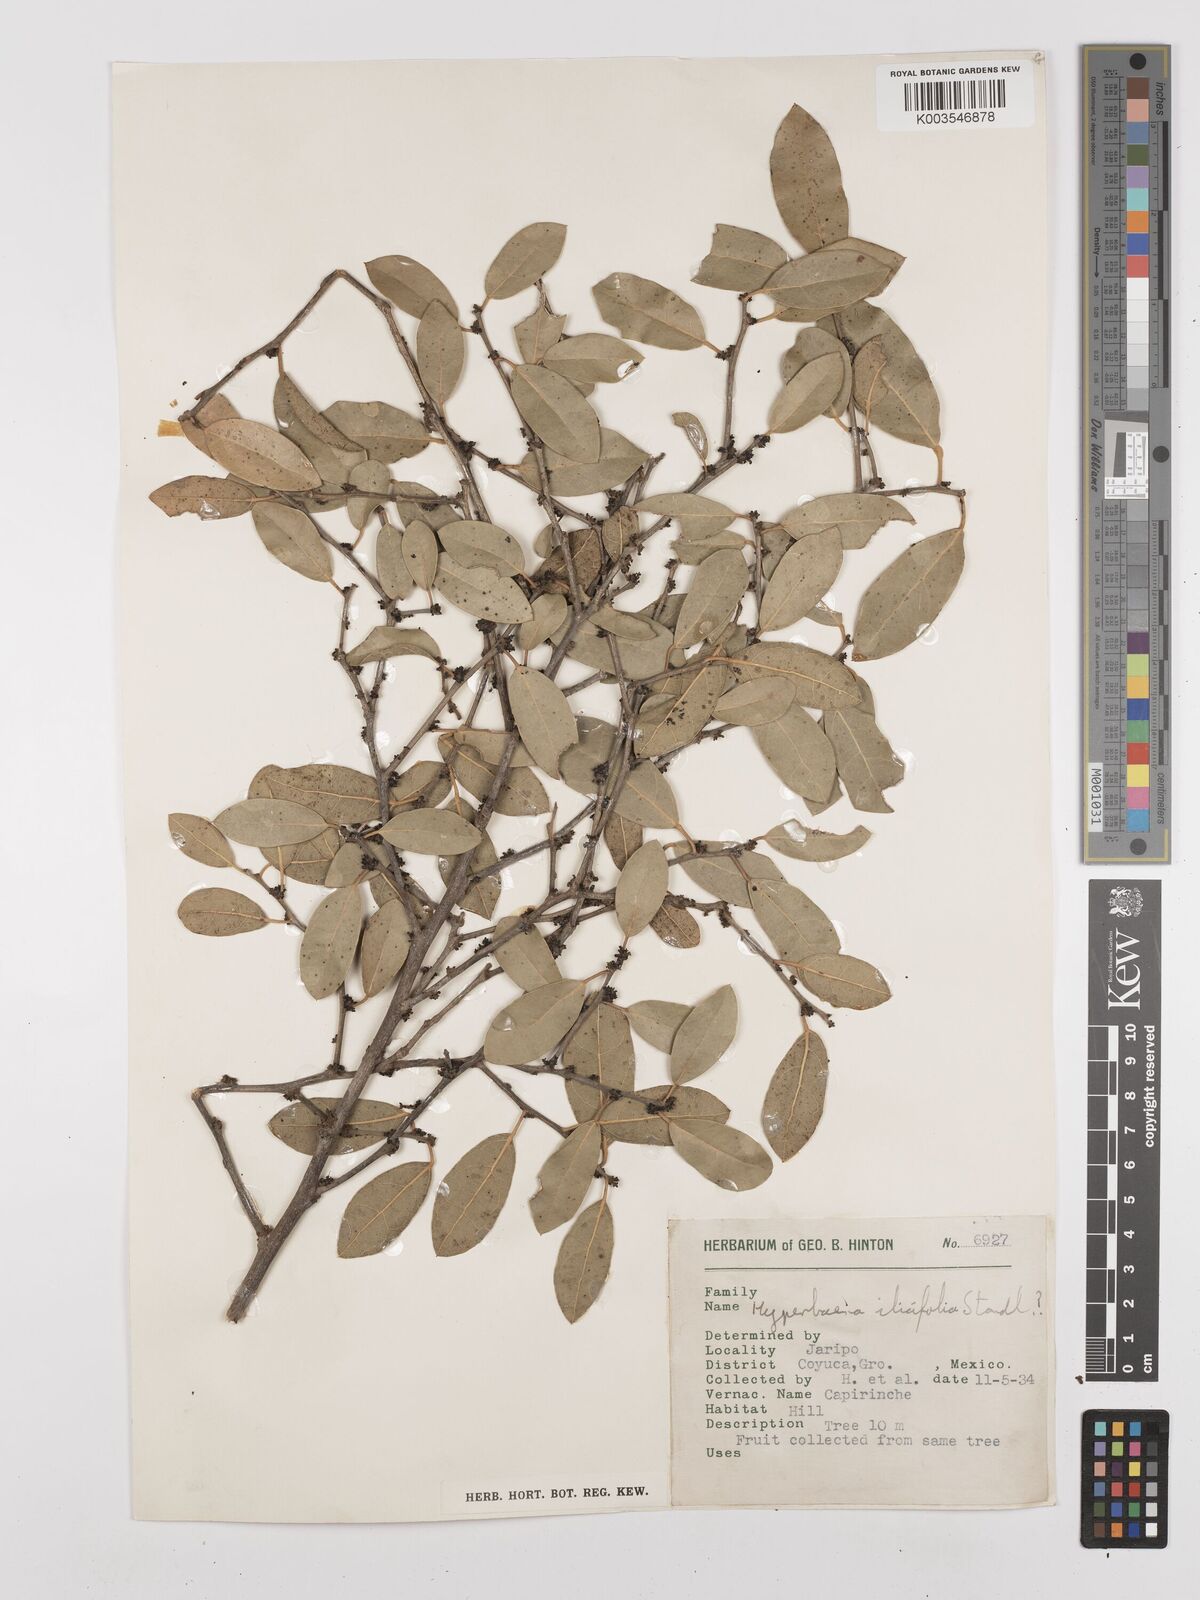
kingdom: Plantae
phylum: Tracheophyta
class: Magnoliopsida
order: Ranunculales
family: Menispermaceae
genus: Hyperbaena
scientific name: Hyperbaena ilicifolia
